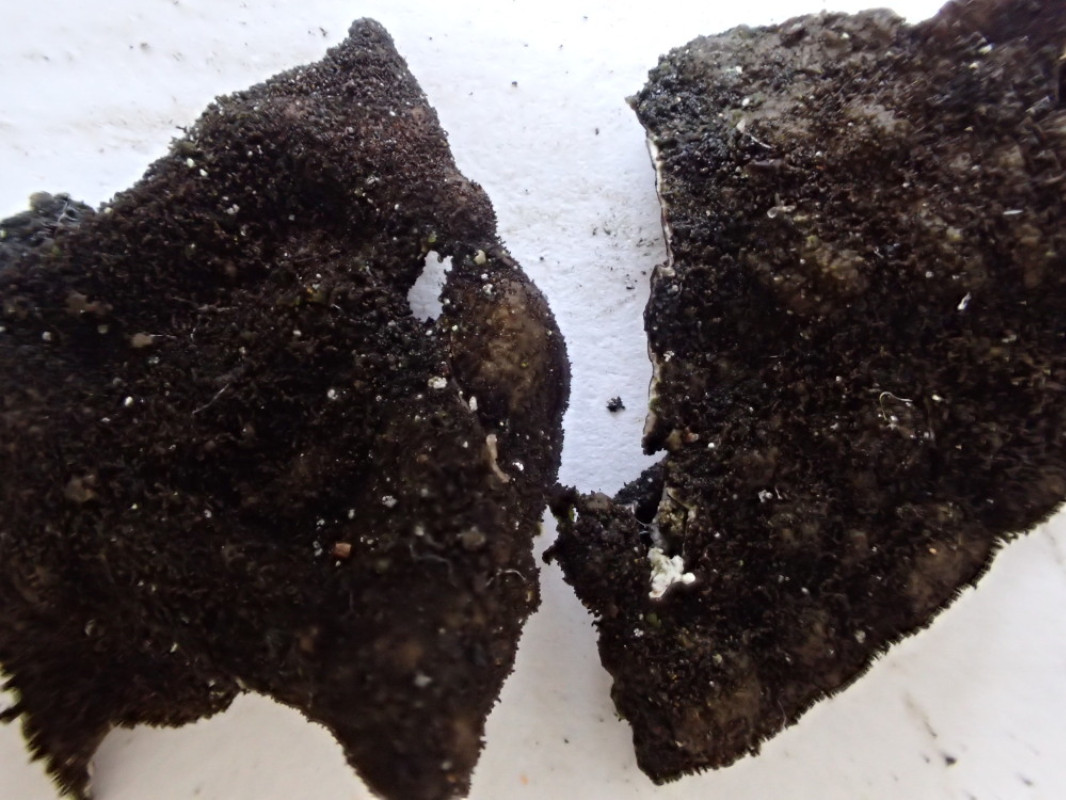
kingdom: Fungi
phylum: Ascomycota
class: Lecanoromycetes
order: Umbilicariales
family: Umbilicariaceae
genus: Umbilicaria
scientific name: Umbilicaria deusta
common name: kliddet navlelav
